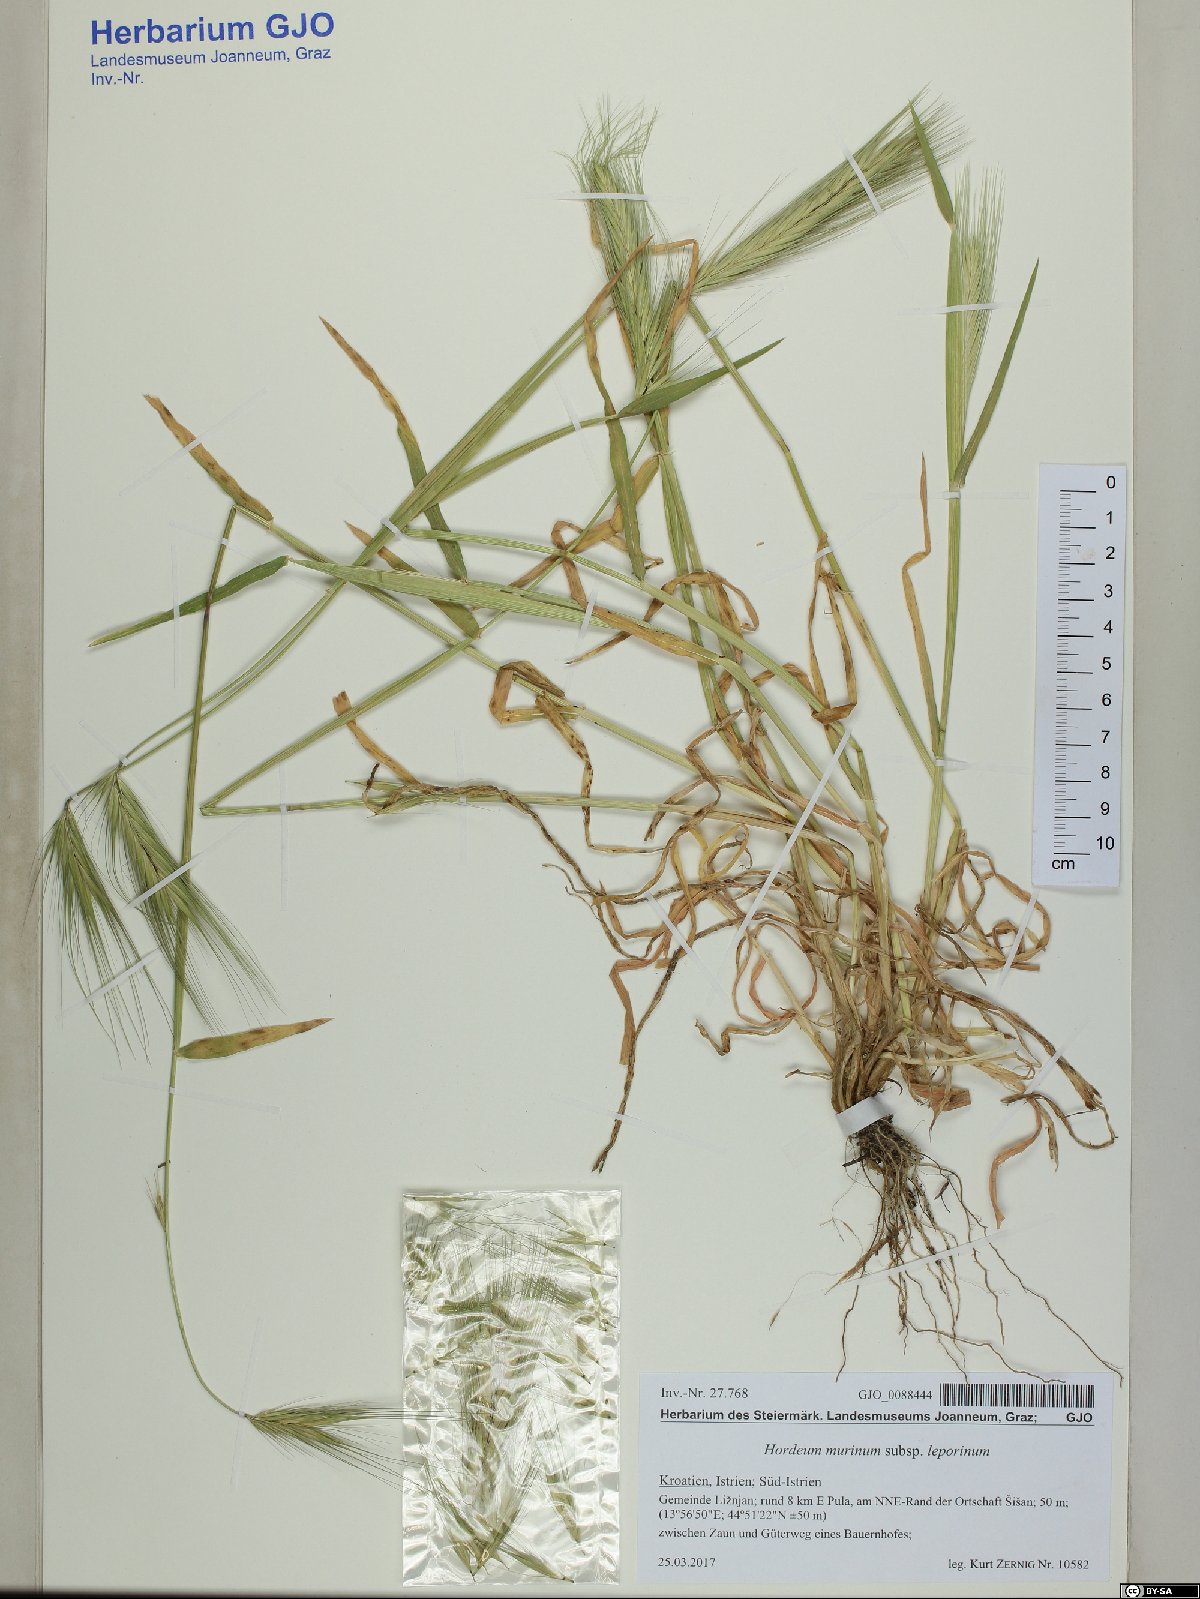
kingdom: Plantae
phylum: Tracheophyta
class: Liliopsida
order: Poales
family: Poaceae
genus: Hordeum
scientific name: Hordeum murinum
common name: Wall barley
